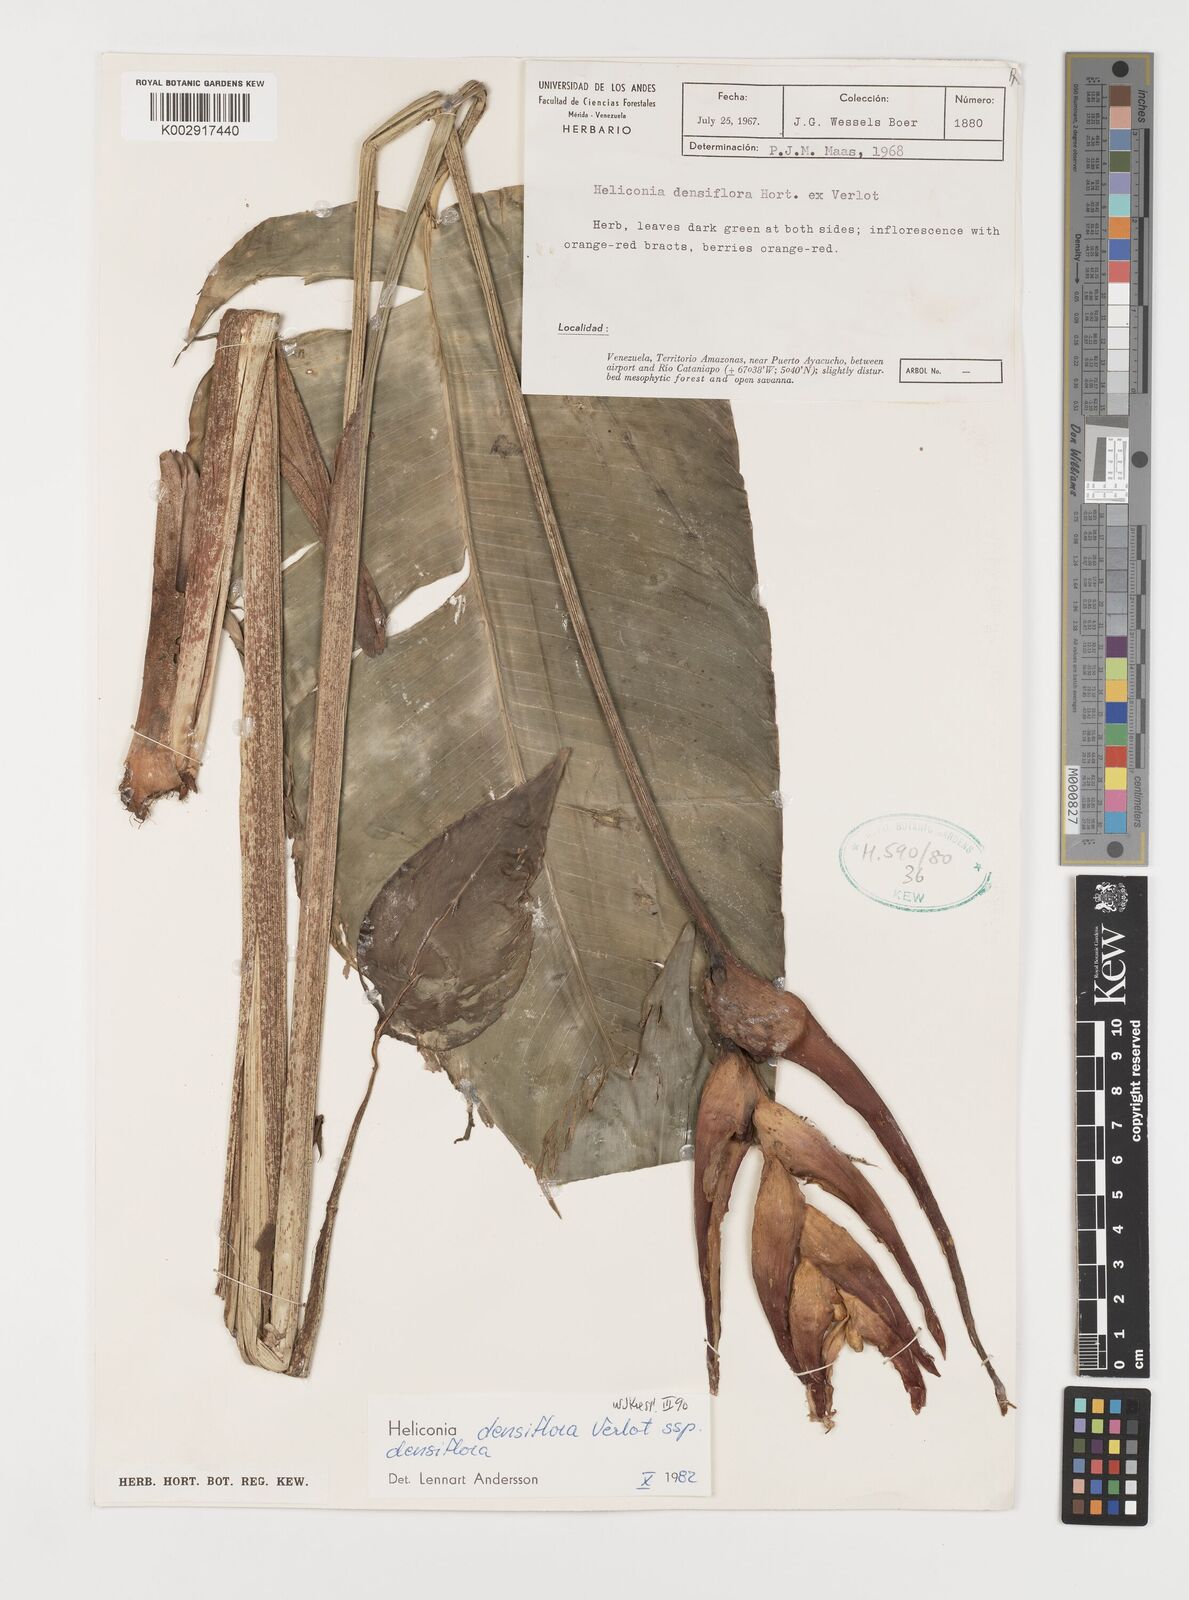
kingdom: Plantae
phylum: Tracheophyta
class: Liliopsida
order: Zingiberales
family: Heliconiaceae
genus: Heliconia
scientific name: Heliconia densiflora
